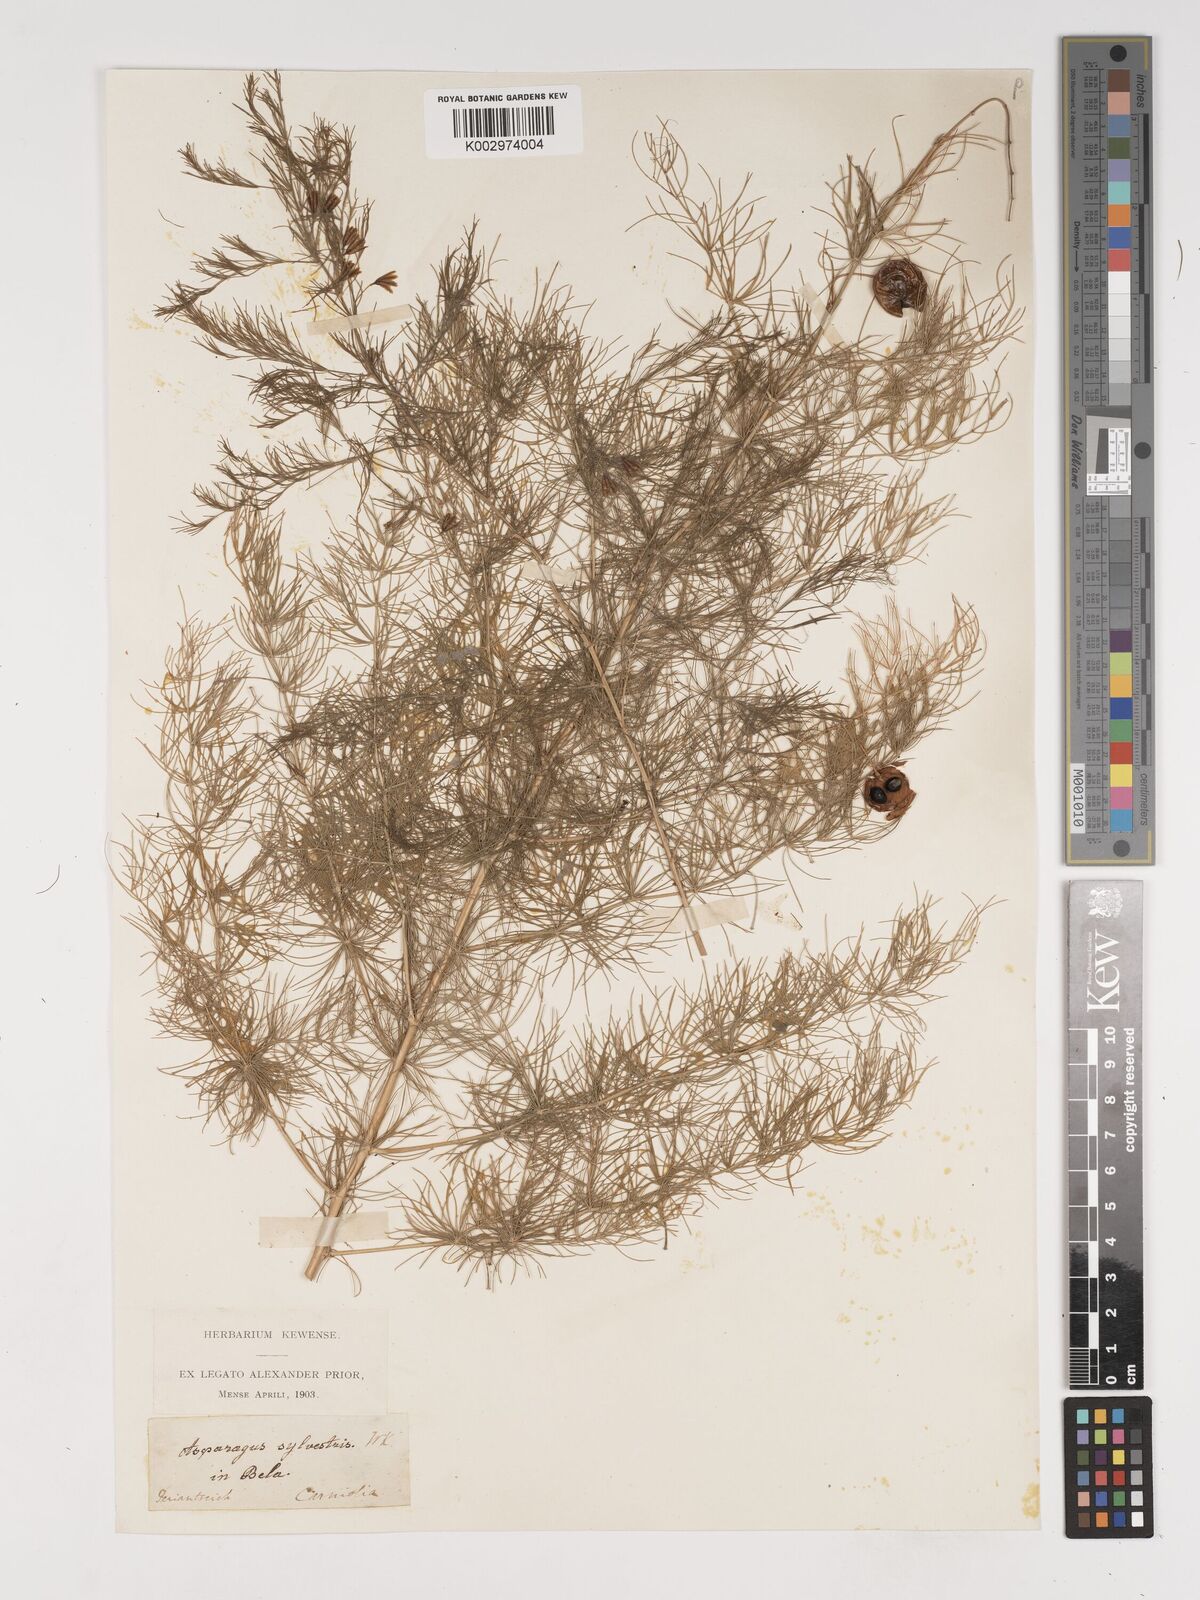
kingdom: Plantae
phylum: Tracheophyta
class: Liliopsida
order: Asparagales
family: Asparagaceae
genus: Asparagus
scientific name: Asparagus officinalis
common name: Garden asparagus
